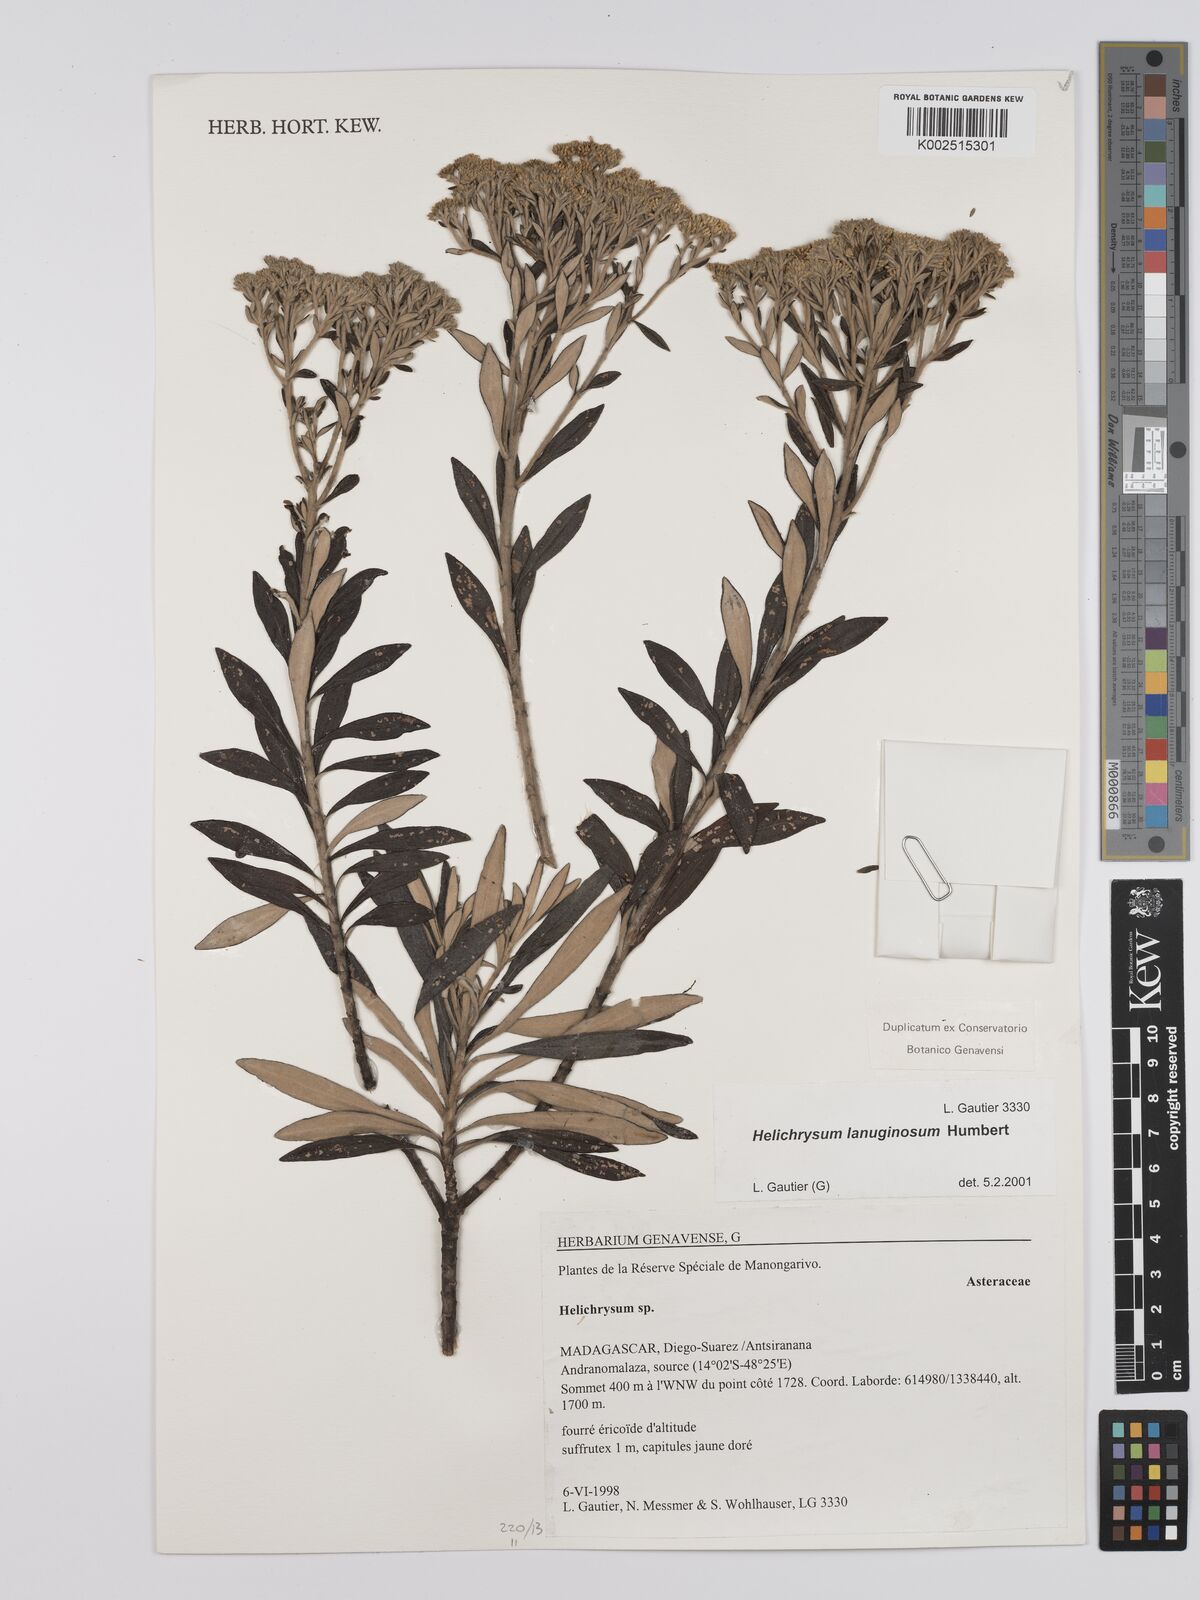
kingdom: Plantae
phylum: Tracheophyta
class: Magnoliopsida
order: Asterales
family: Asteraceae
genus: Helichrysum
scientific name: Helichrysum lanuginosum
